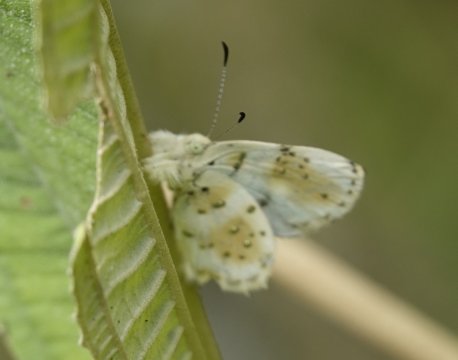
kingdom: Animalia
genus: Anteros
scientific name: Anteros chrysoprastus
